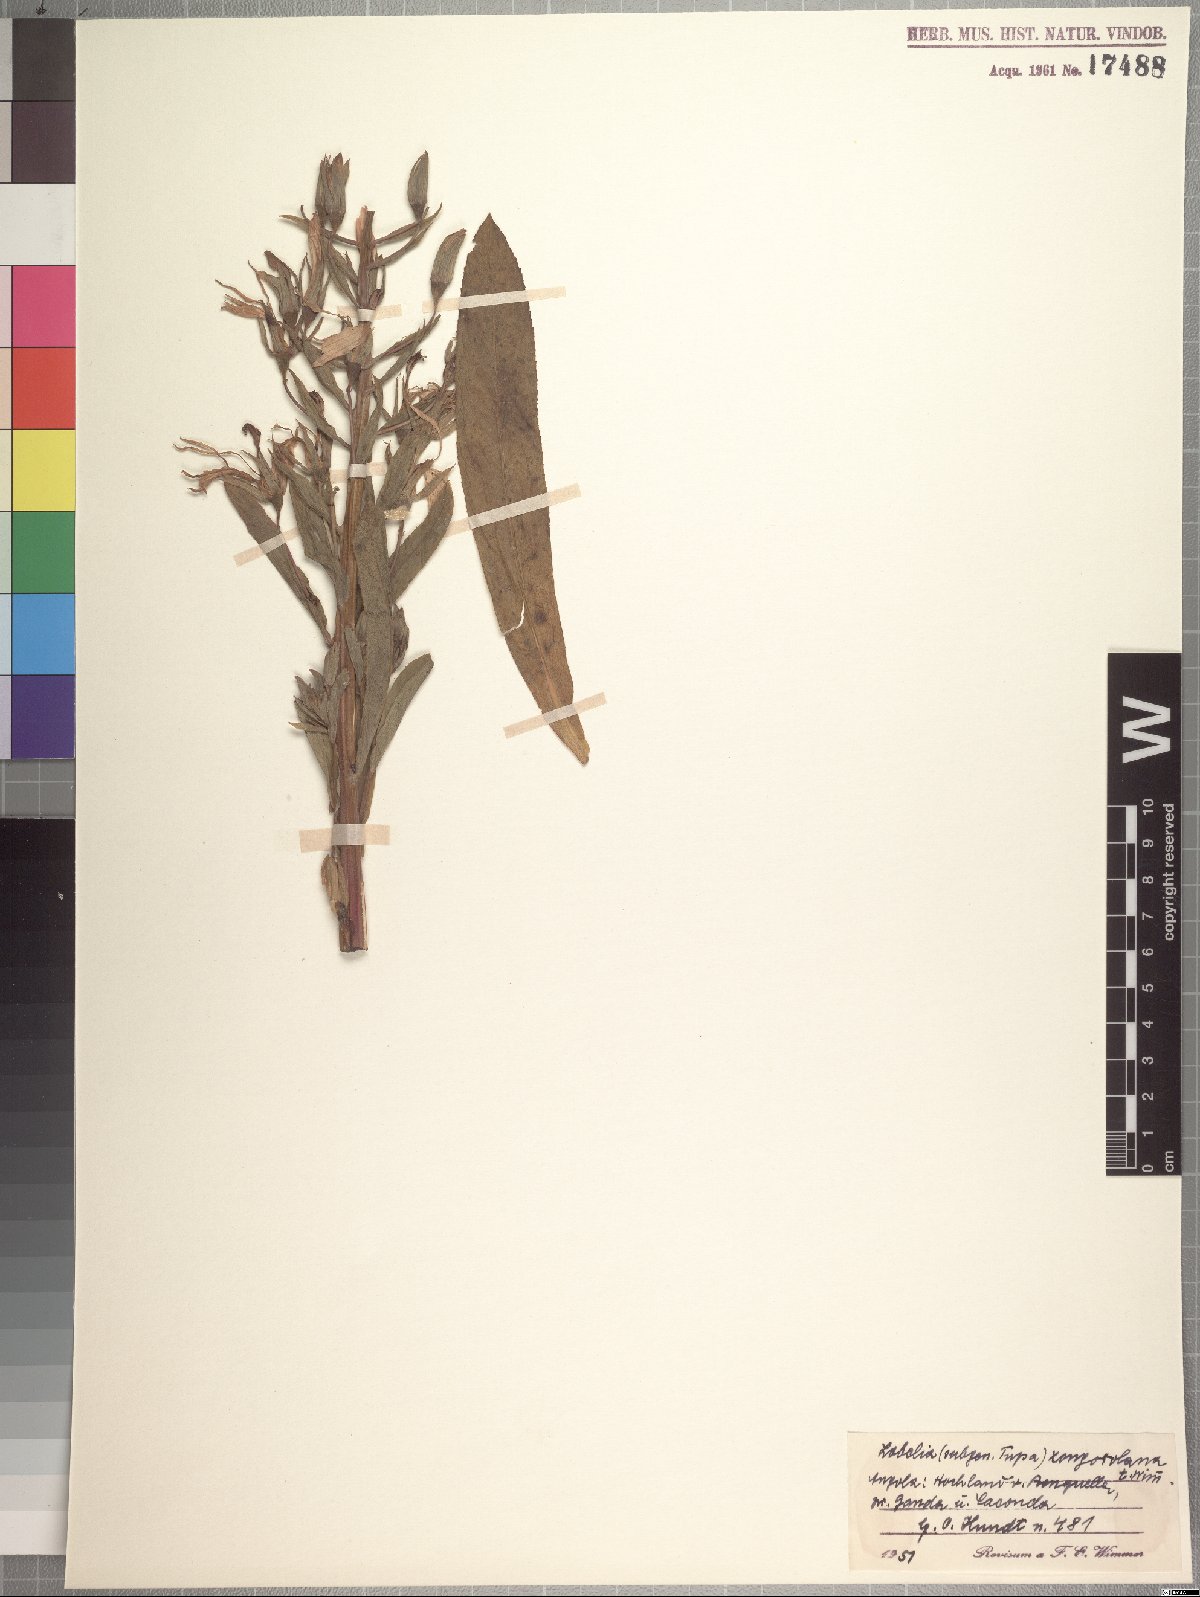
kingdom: Plantae
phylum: Tracheophyta
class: Magnoliopsida
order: Asterales
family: Campanulaceae
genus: Lobelia
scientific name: Lobelia xongorolana
